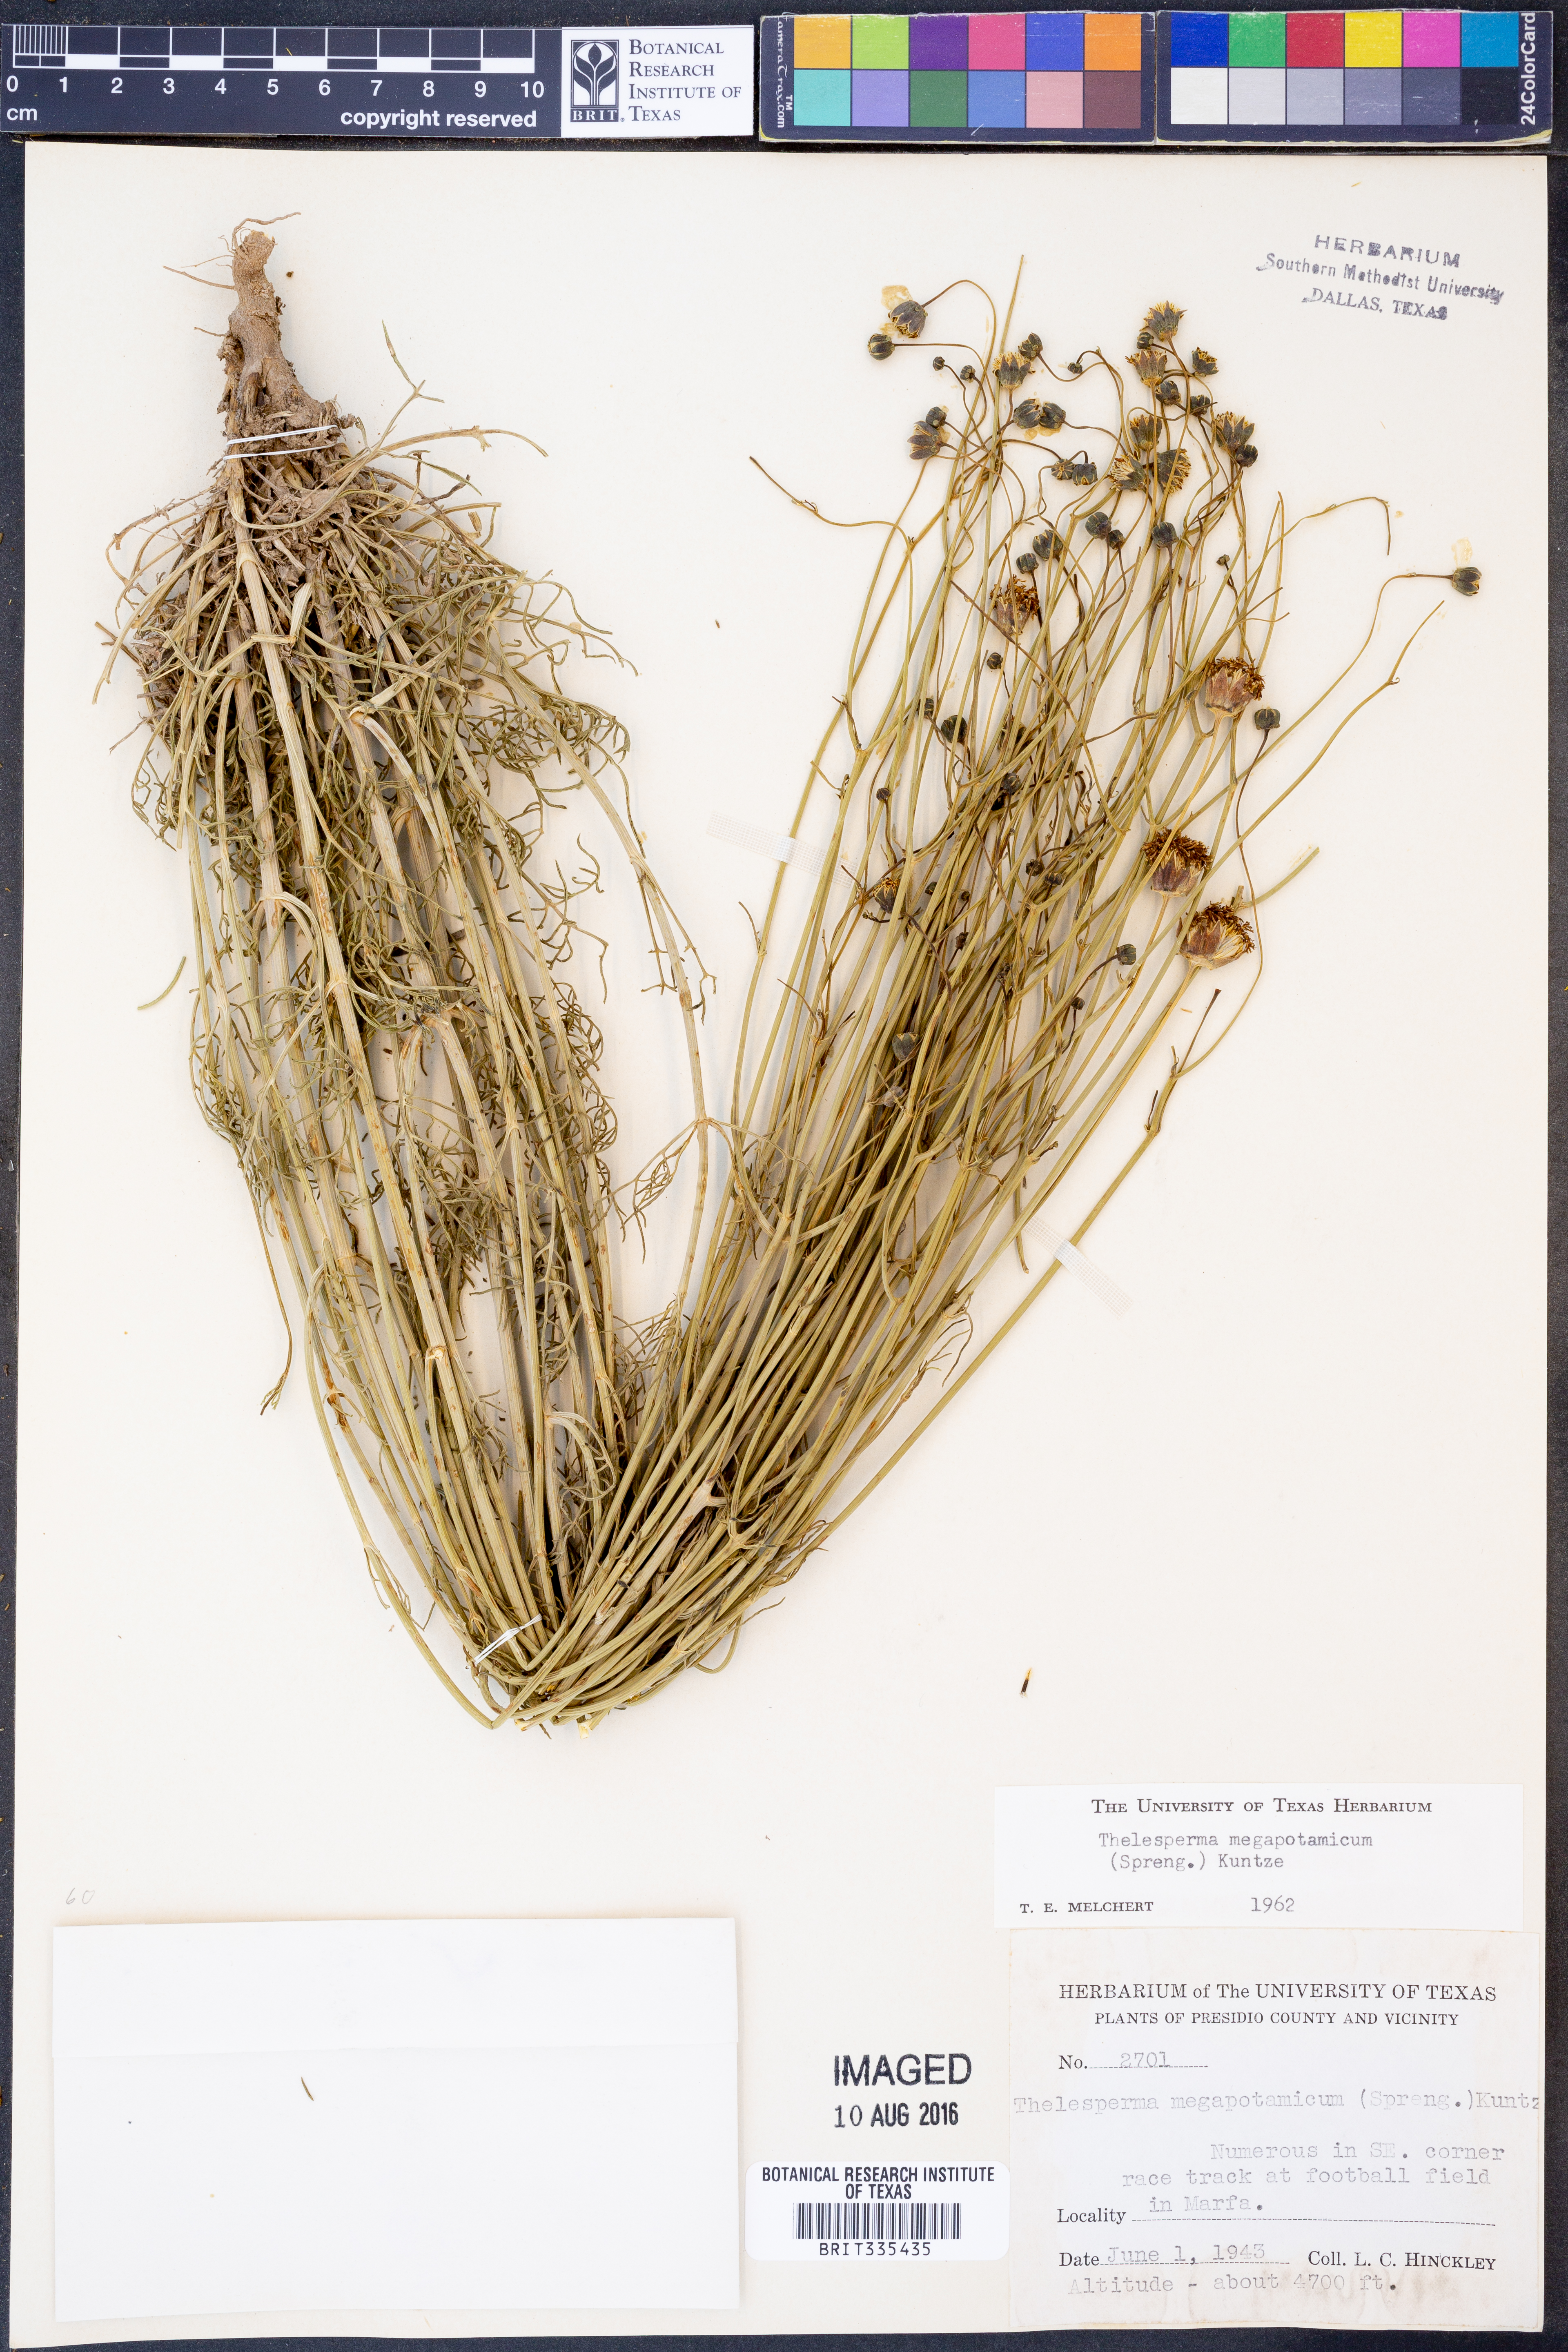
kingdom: Plantae
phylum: Tracheophyta
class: Magnoliopsida
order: Asterales
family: Asteraceae
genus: Thelesperma
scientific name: Thelesperma megapotamicum
